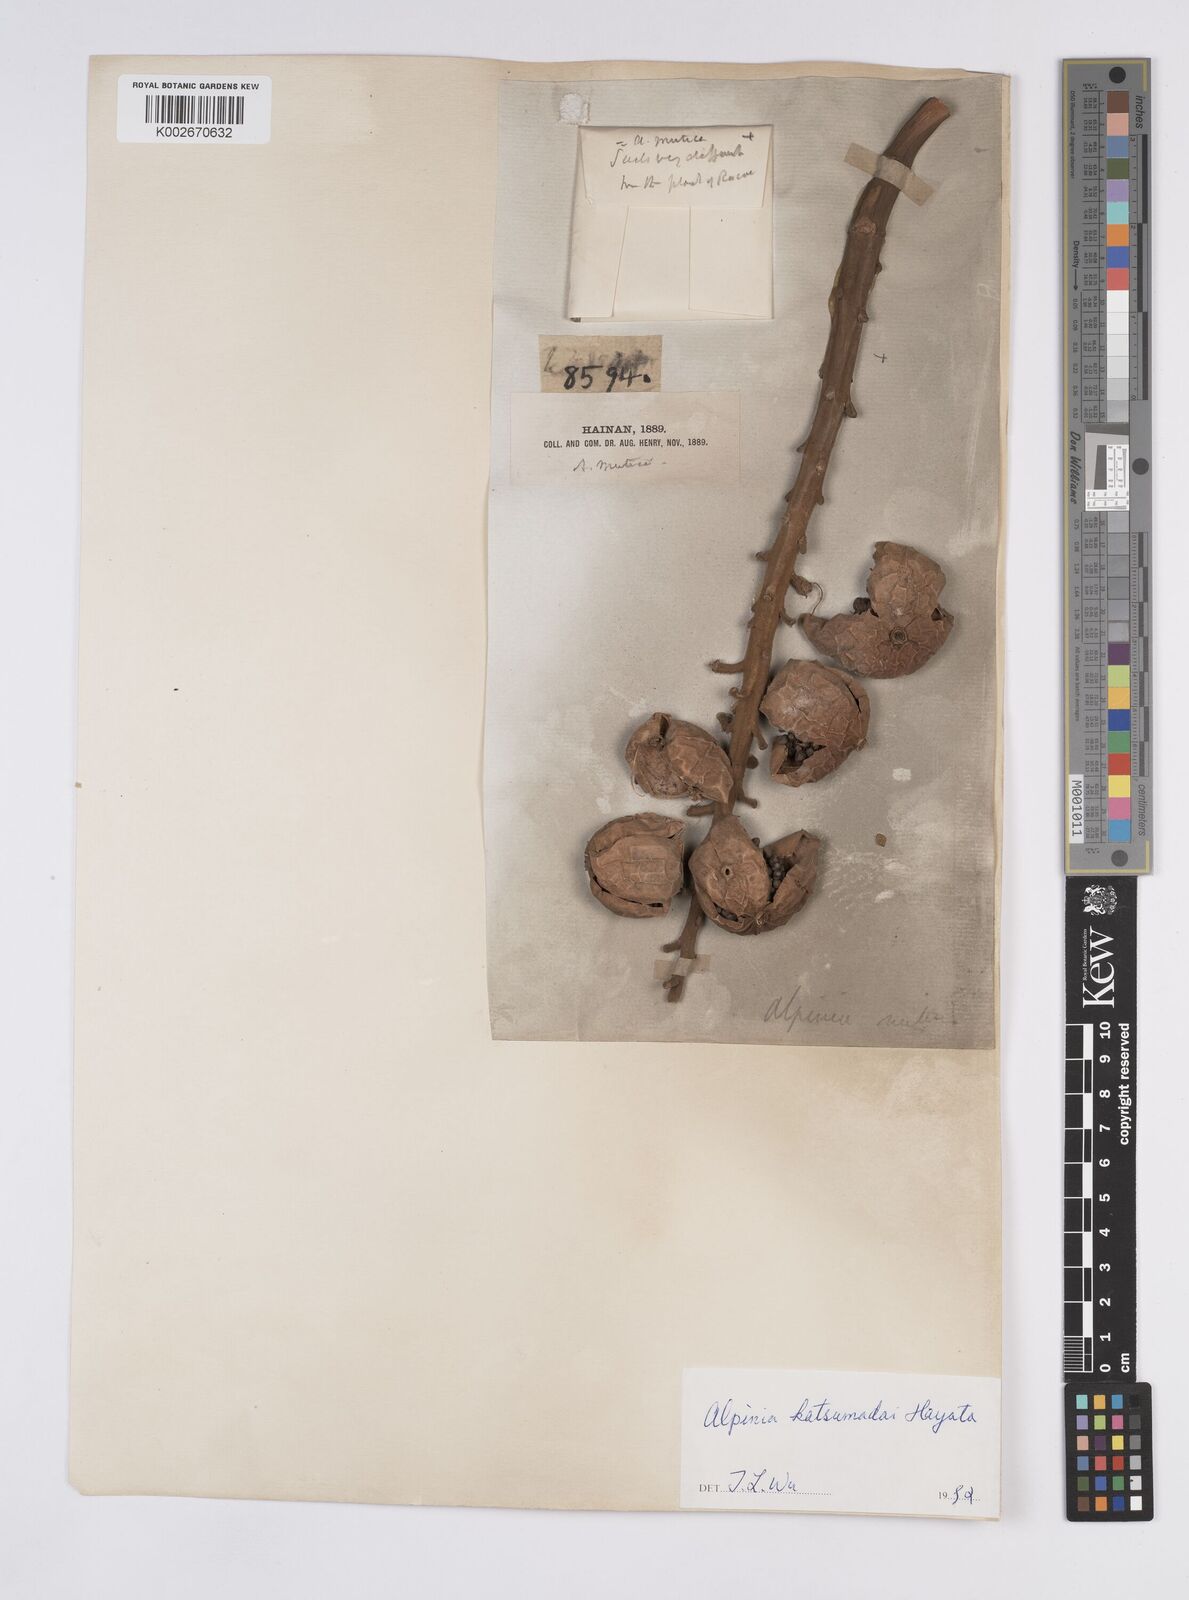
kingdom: Plantae
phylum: Tracheophyta
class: Liliopsida
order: Zingiberales
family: Zingiberaceae
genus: Alpinia
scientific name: Alpinia hainanensis
